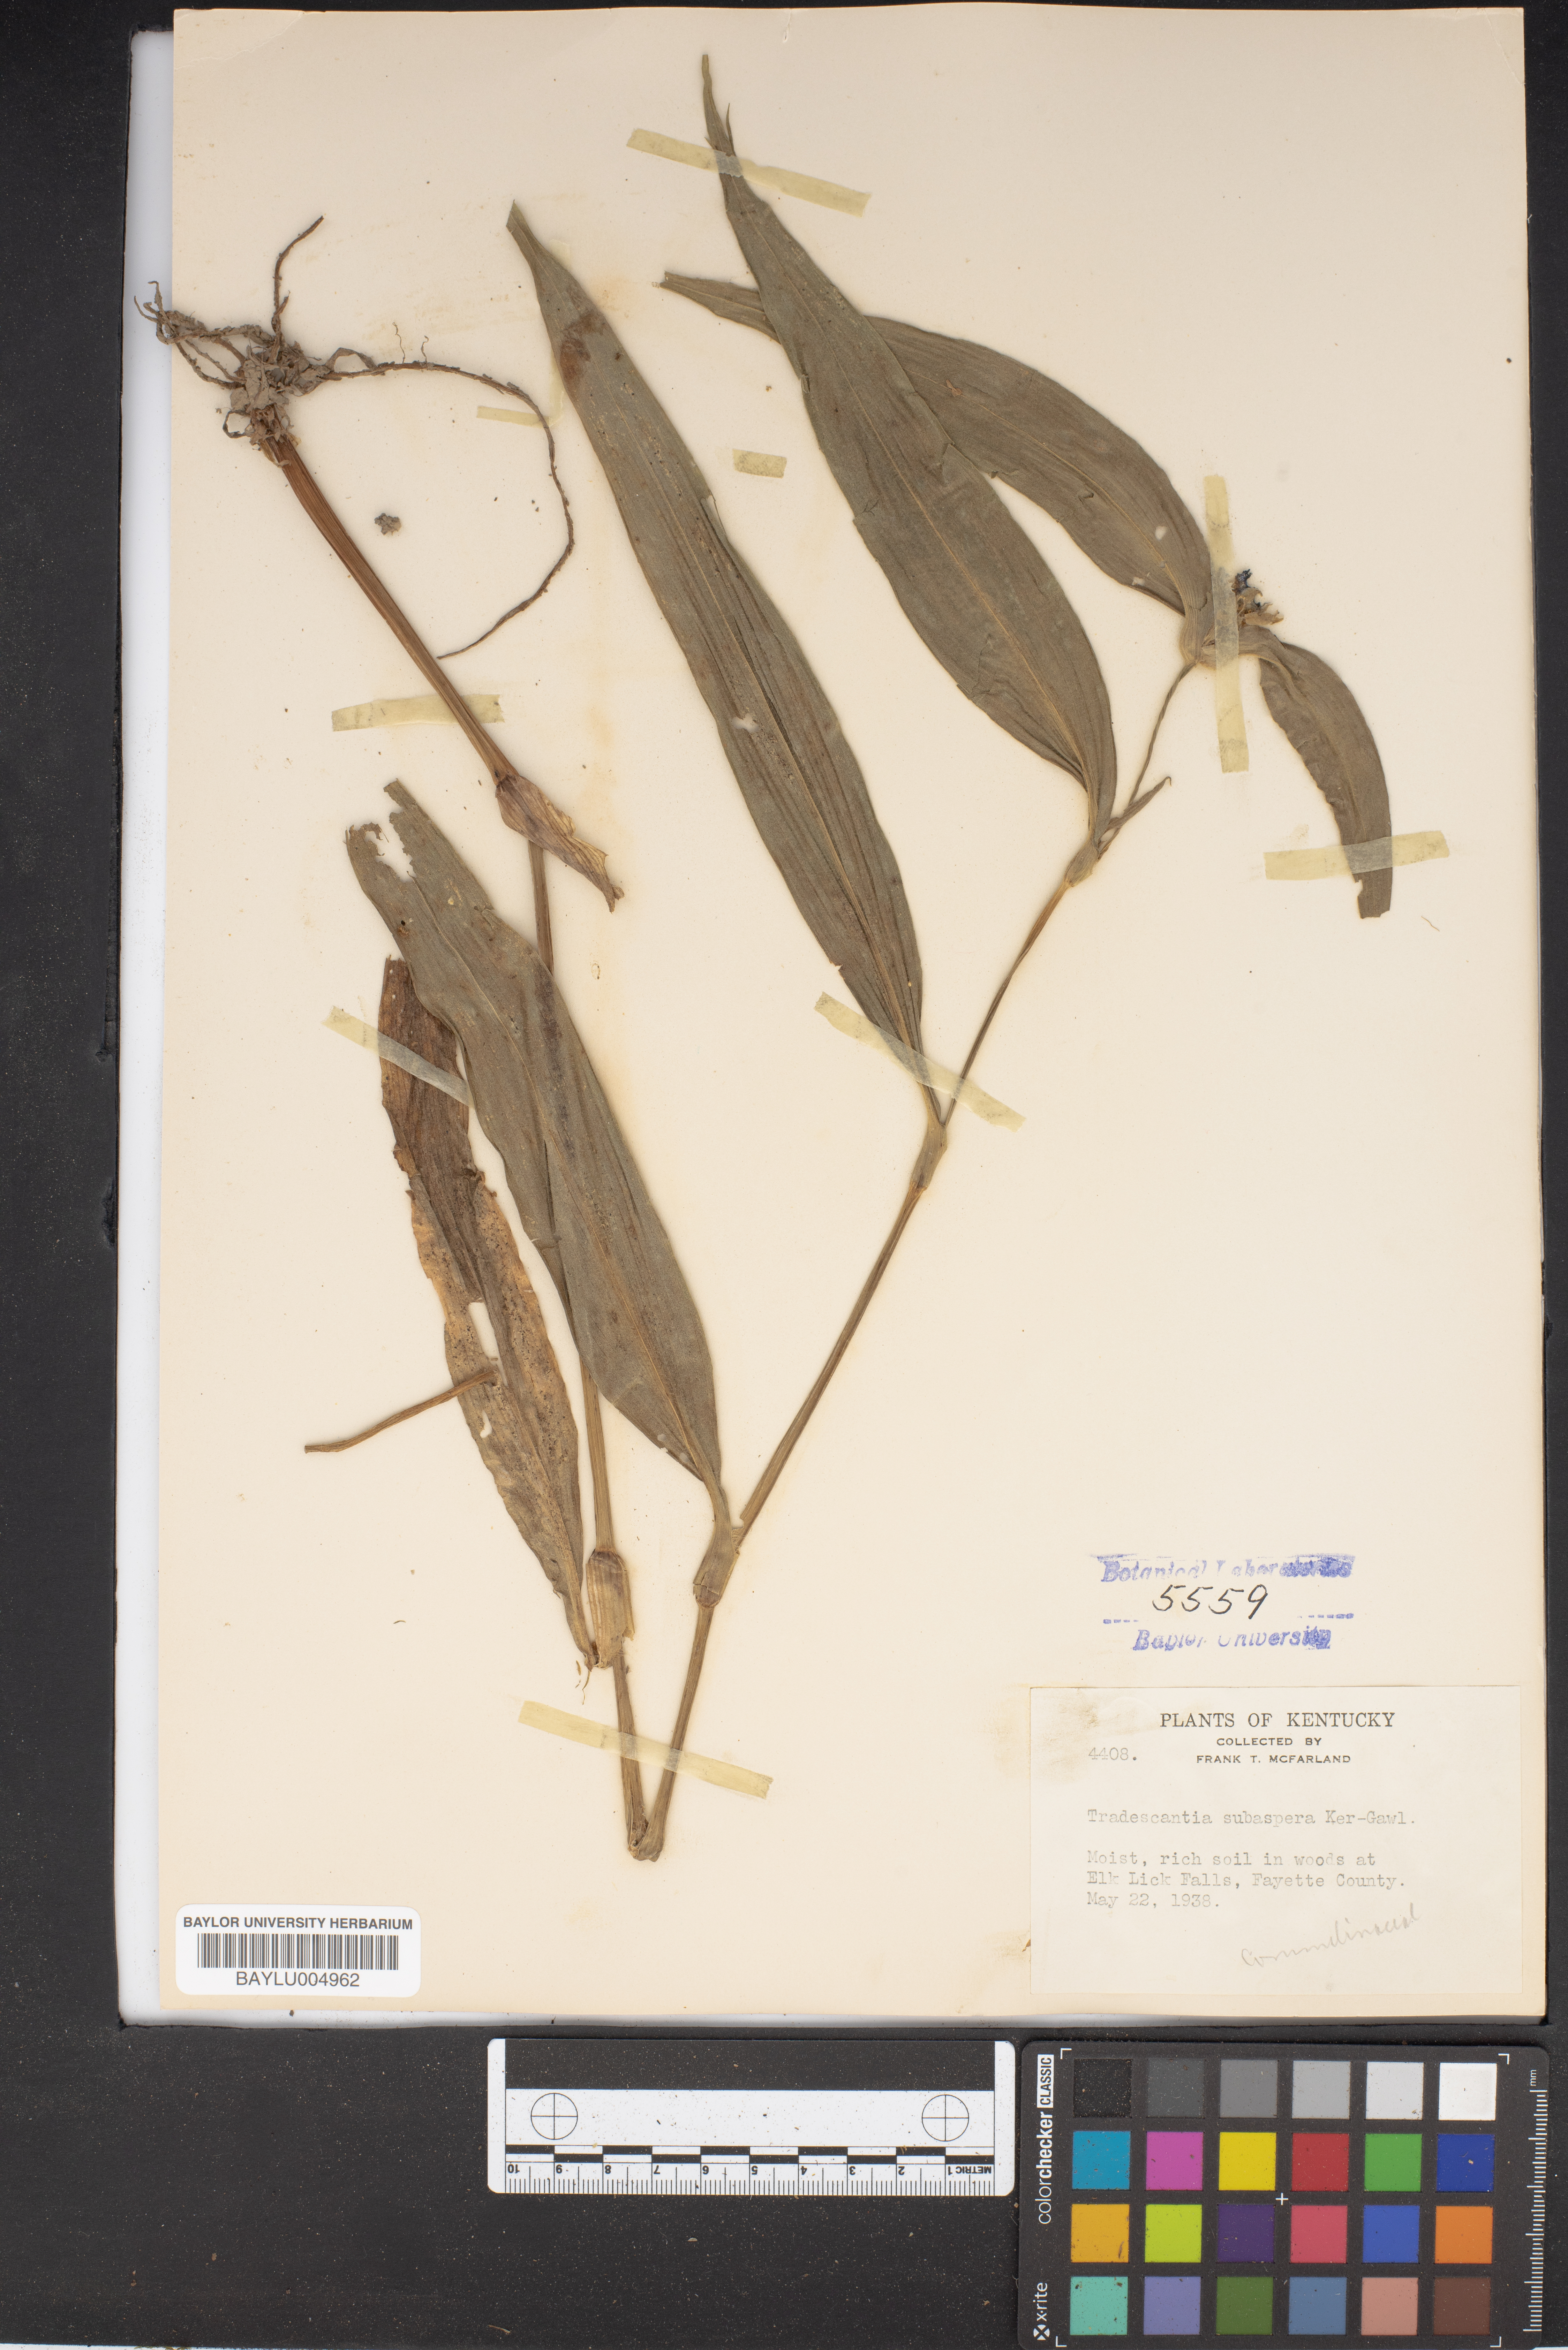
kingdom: Plantae
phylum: Tracheophyta
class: Liliopsida
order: Commelinales
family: Commelinaceae
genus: Tradescantia
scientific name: Tradescantia subaspera
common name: Wide-leaf spiderwort
